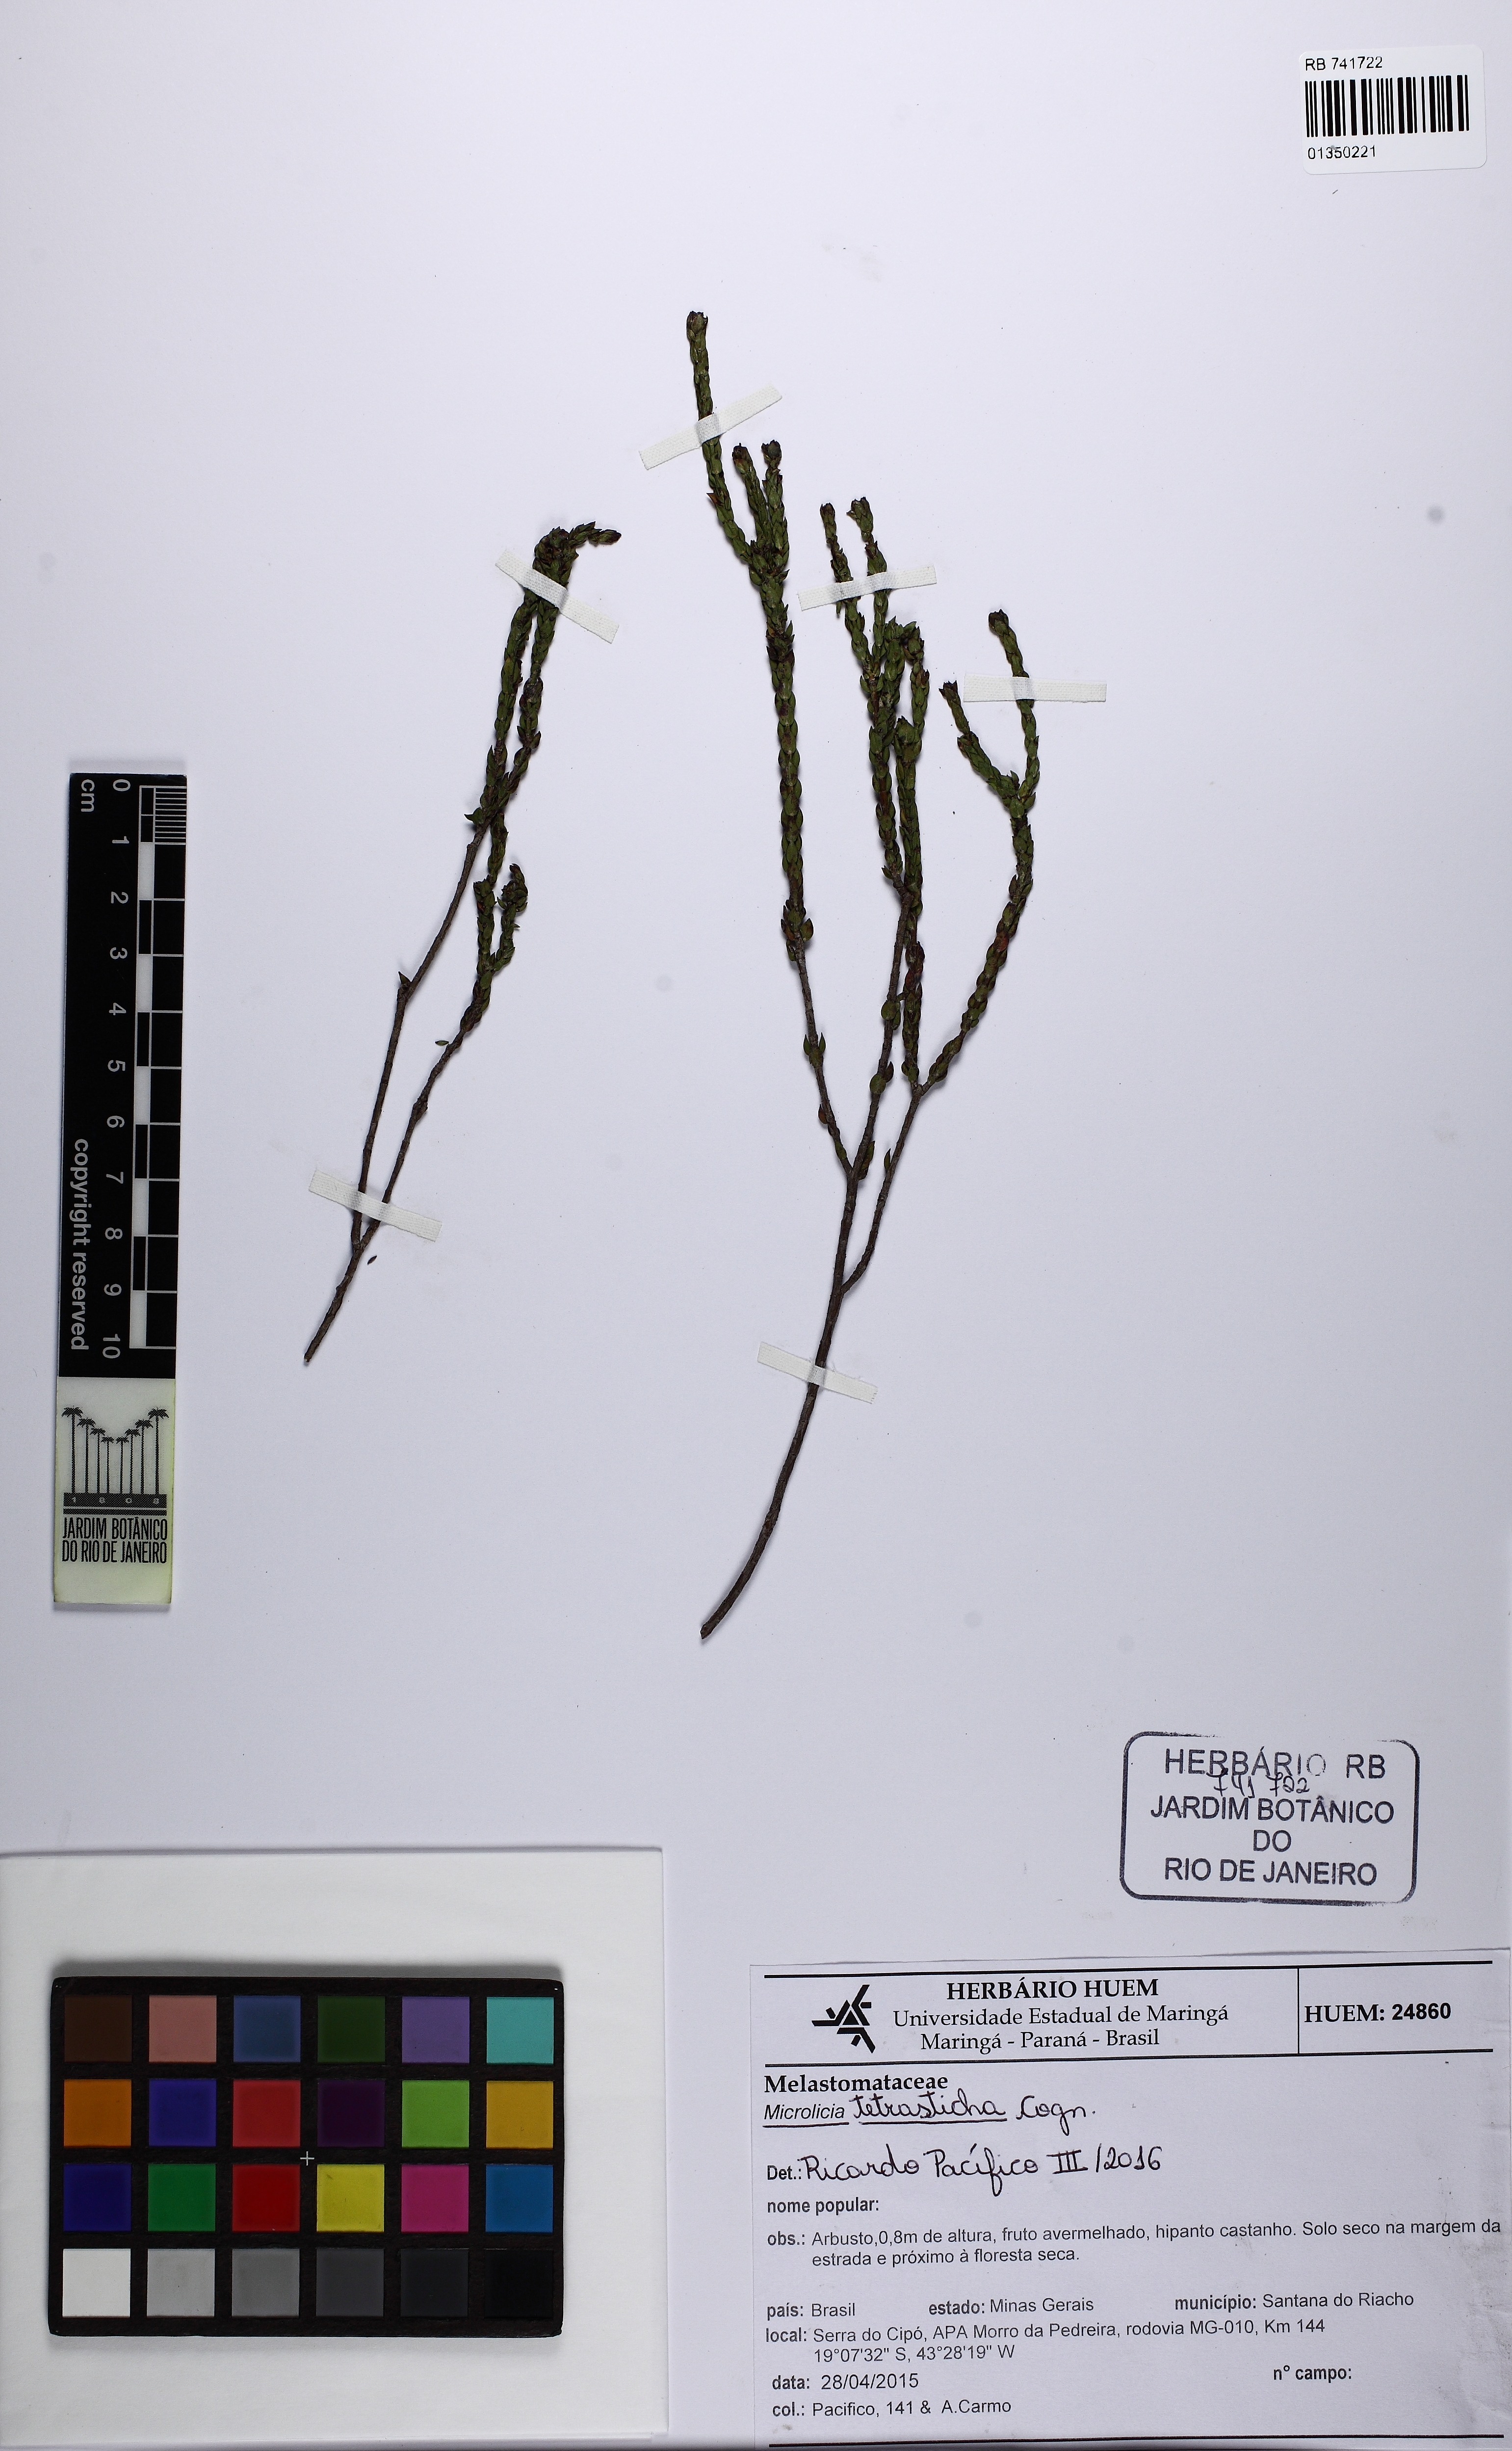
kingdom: Plantae
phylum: Tracheophyta
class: Magnoliopsida
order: Myrtales
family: Melastomataceae
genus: Microlicia
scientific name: Microlicia tetrasticha
